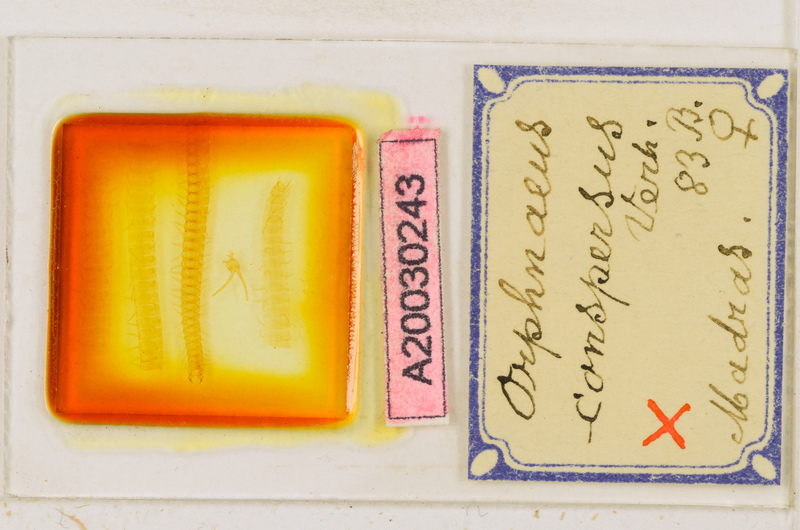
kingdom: Animalia
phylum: Arthropoda
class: Chilopoda
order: Geophilomorpha
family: Oryidae
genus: Orphnaeus
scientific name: Orphnaeus
